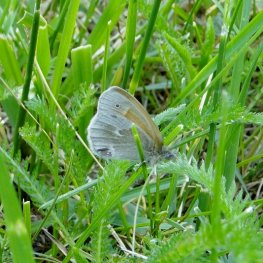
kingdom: Animalia
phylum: Arthropoda
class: Insecta
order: Lepidoptera
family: Nymphalidae
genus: Coenonympha
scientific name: Coenonympha tullia
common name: Large Heath
